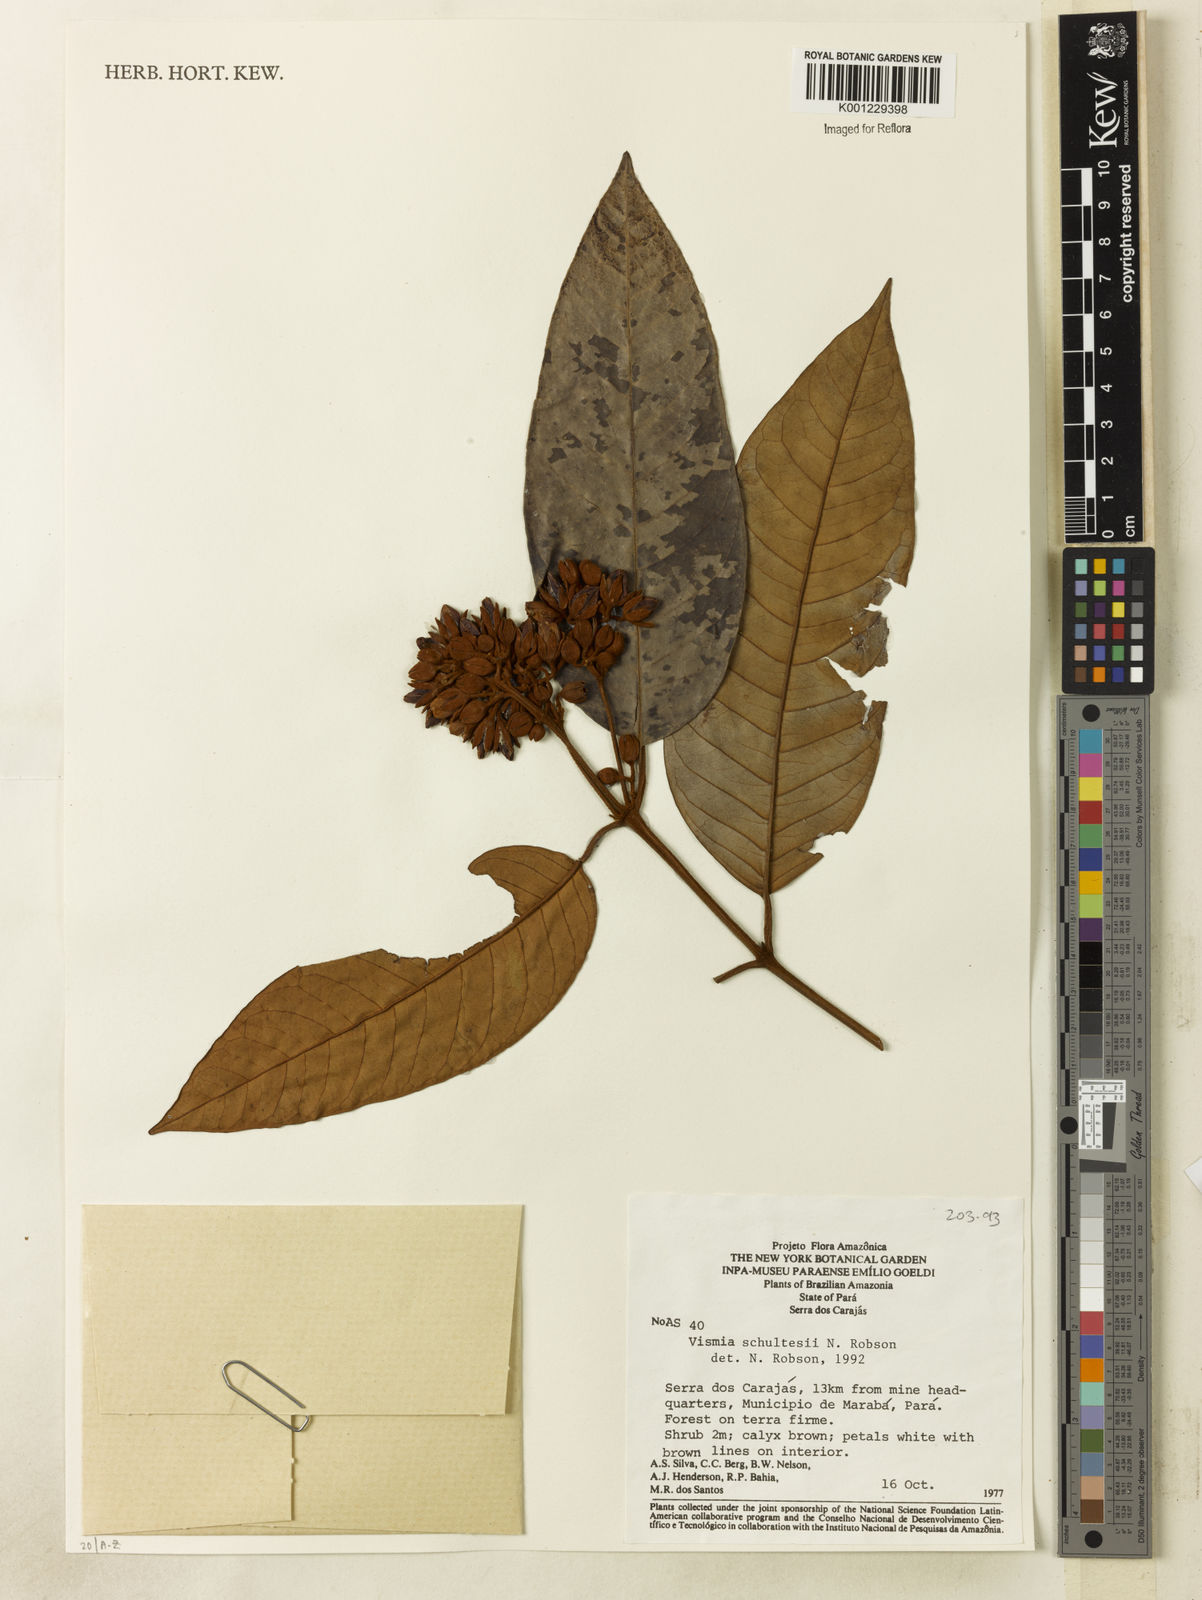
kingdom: Plantae
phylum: Tracheophyta
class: Magnoliopsida
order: Malpighiales
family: Hypericaceae
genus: Vismia
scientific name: Vismia ferruginea
